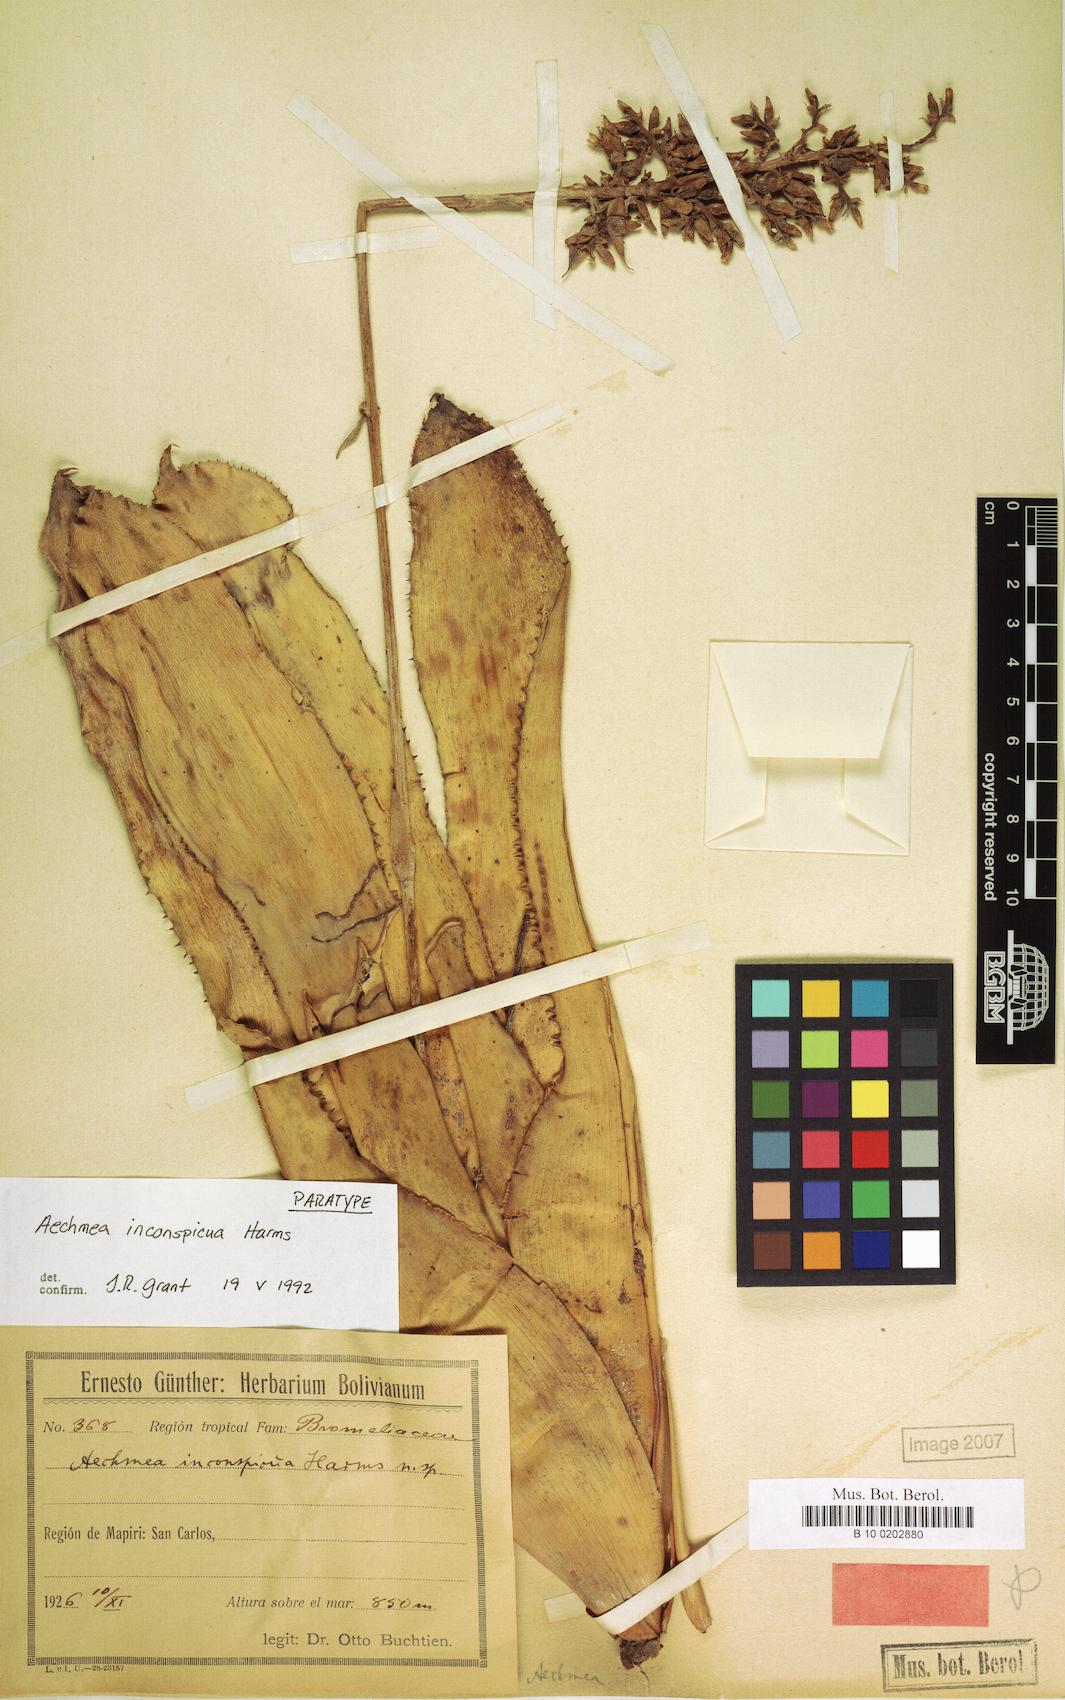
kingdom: Plantae
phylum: Tracheophyta
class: Liliopsida
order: Poales
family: Bromeliaceae
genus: Aechmea
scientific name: Aechmea angustifolia
